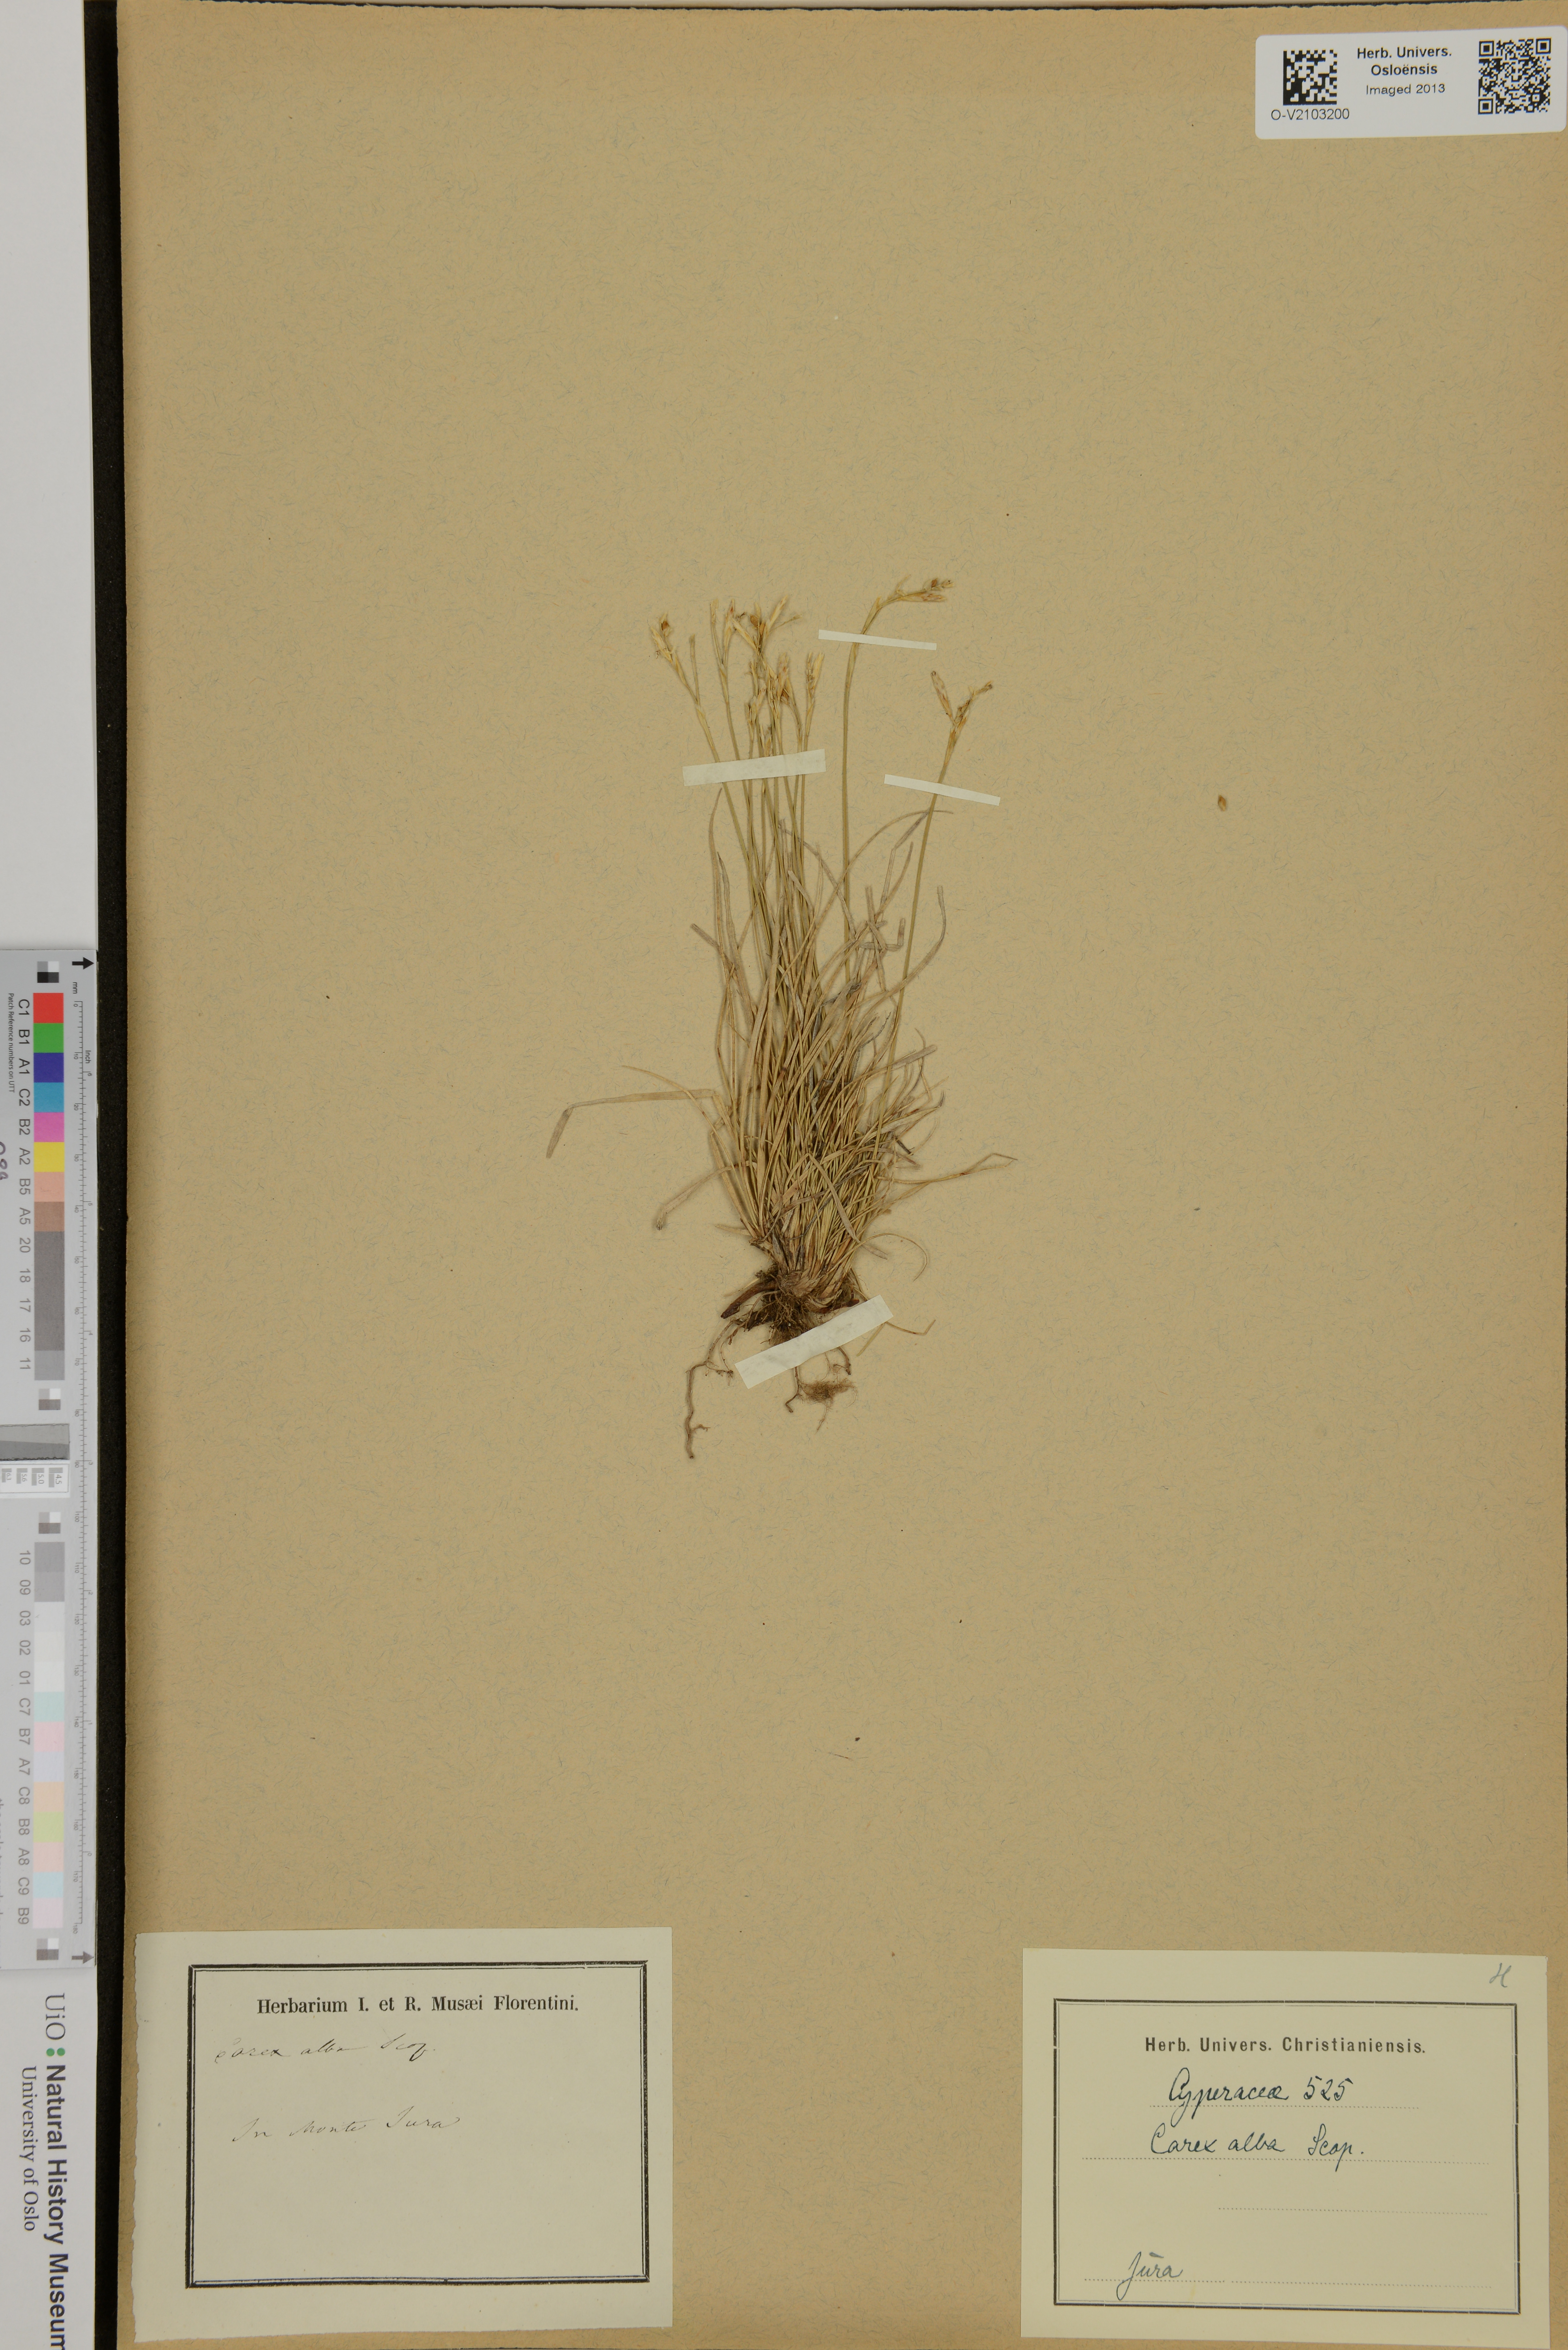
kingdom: Plantae
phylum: Tracheophyta
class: Liliopsida
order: Poales
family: Cyperaceae
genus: Carex
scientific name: Carex alba
